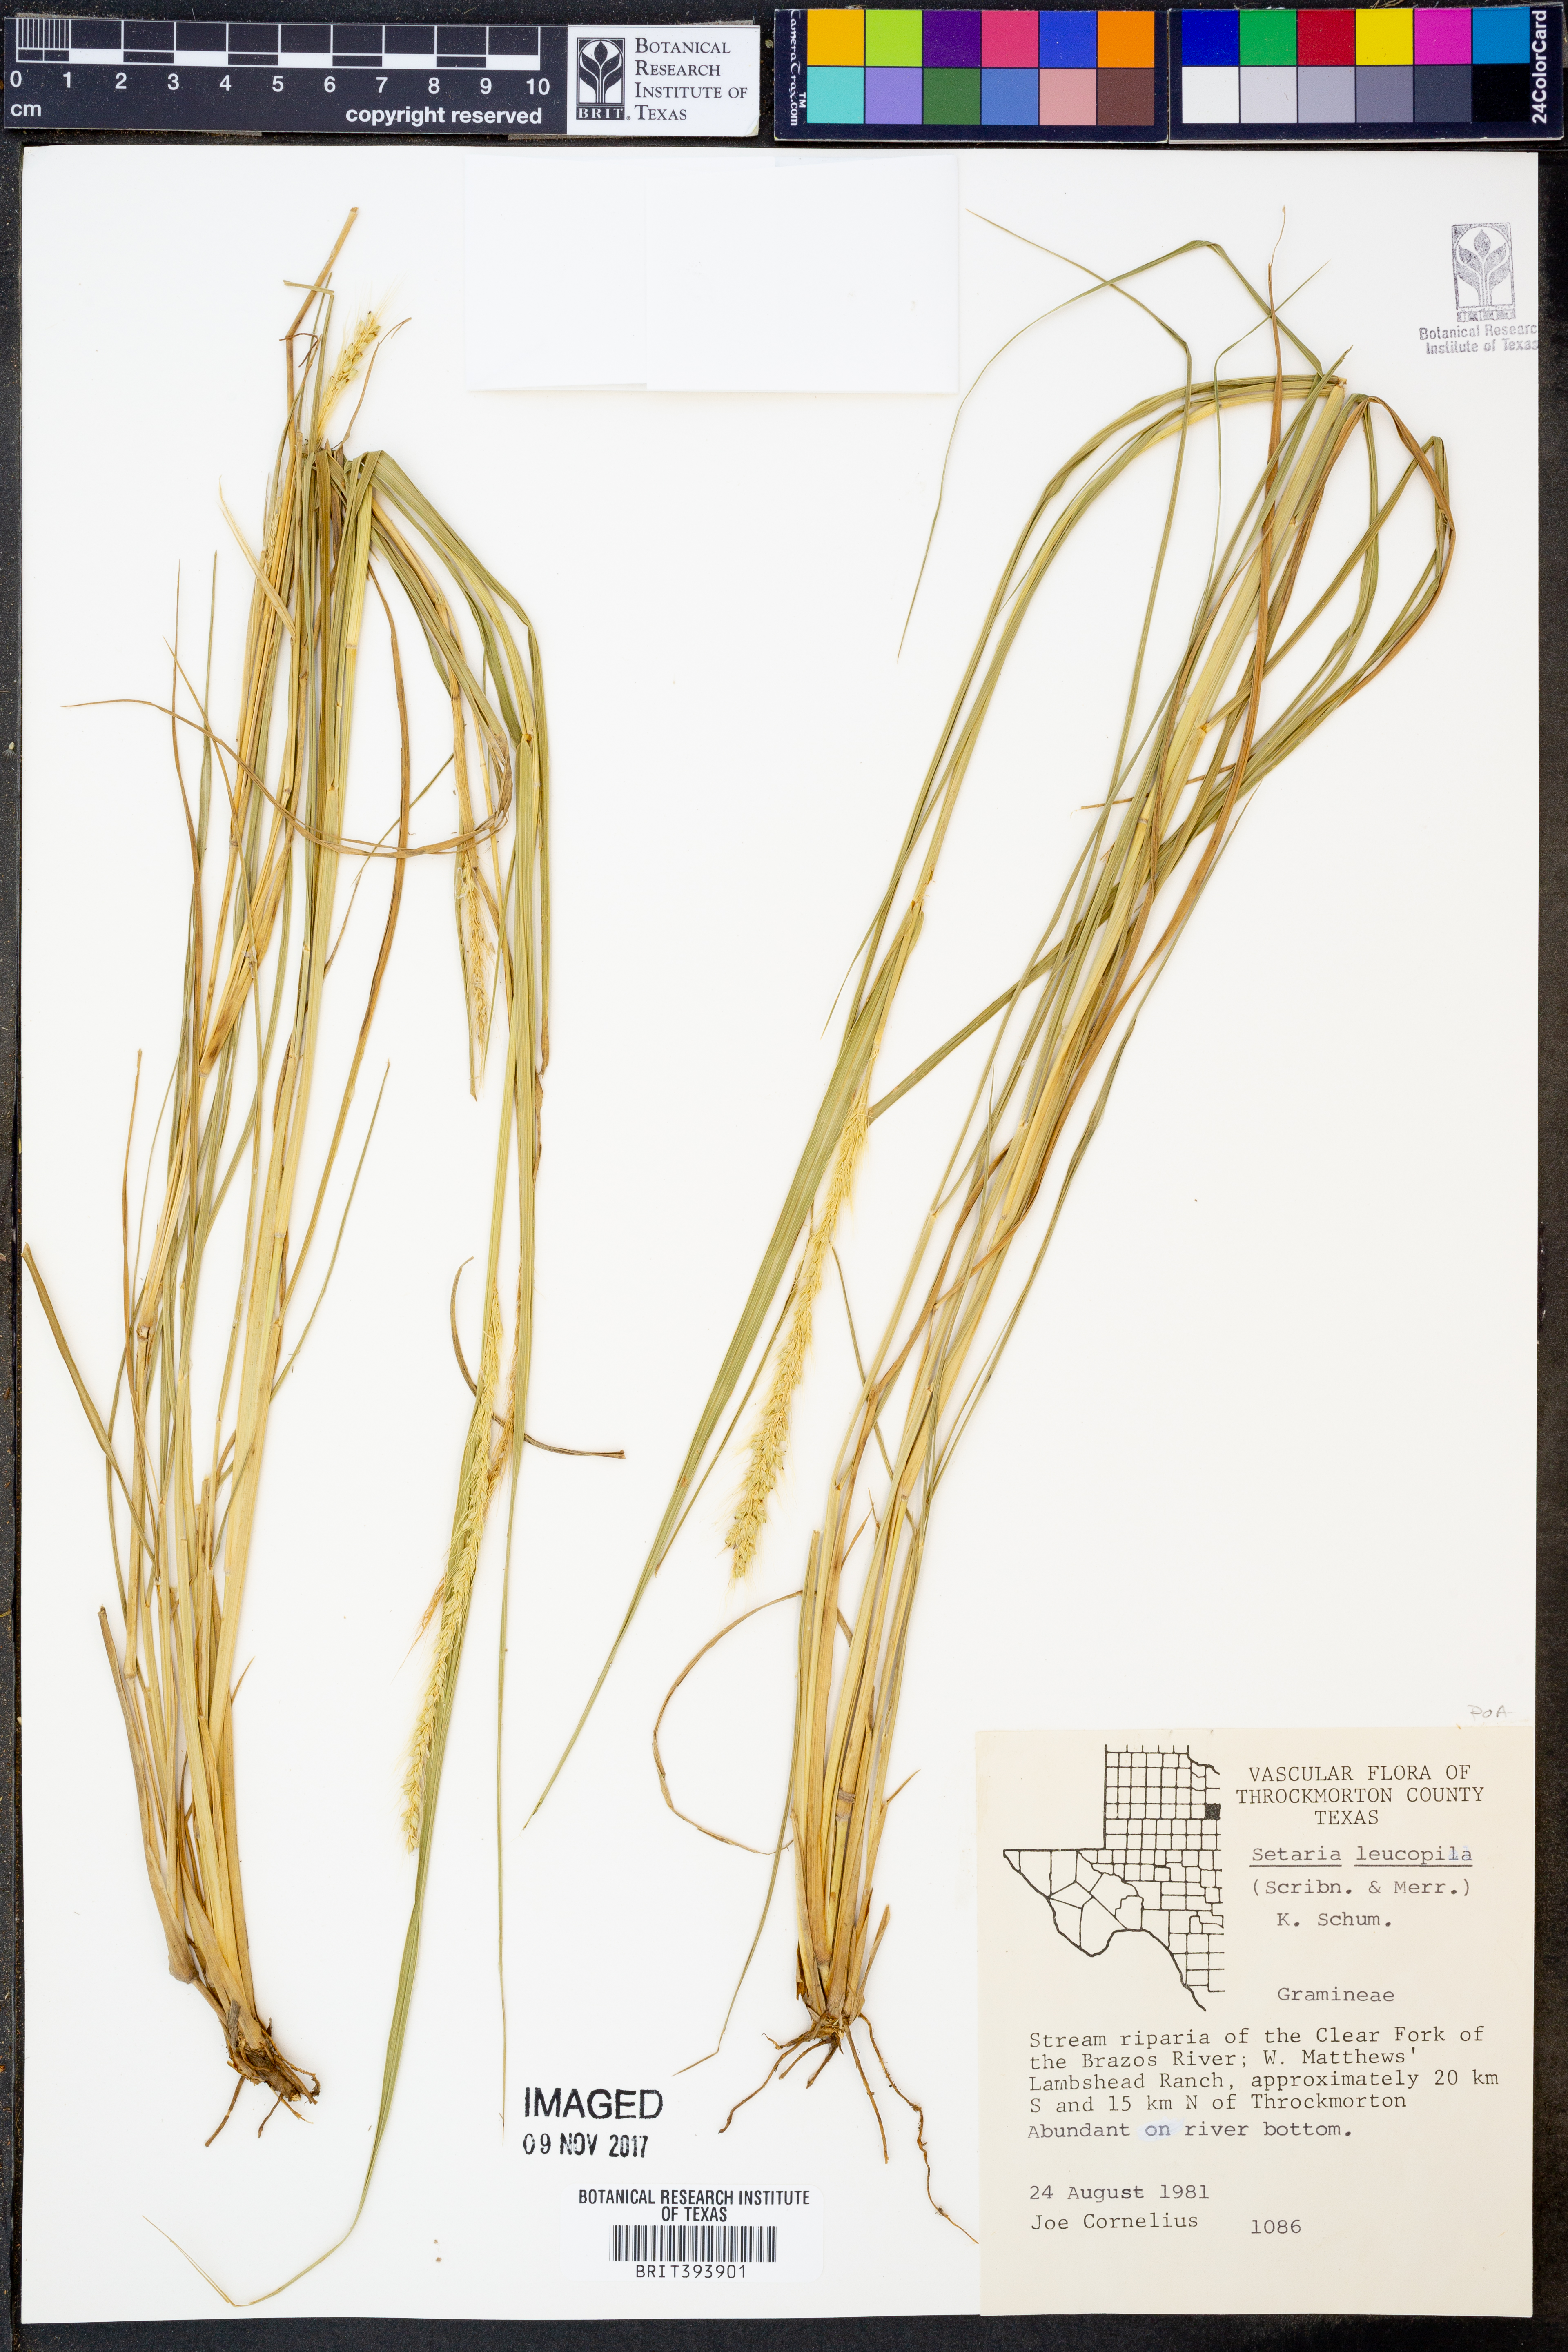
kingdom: Plantae
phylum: Tracheophyta
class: Liliopsida
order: Poales
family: Poaceae
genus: Setaria
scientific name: Setaria leucopila
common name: Plains bristle grass
